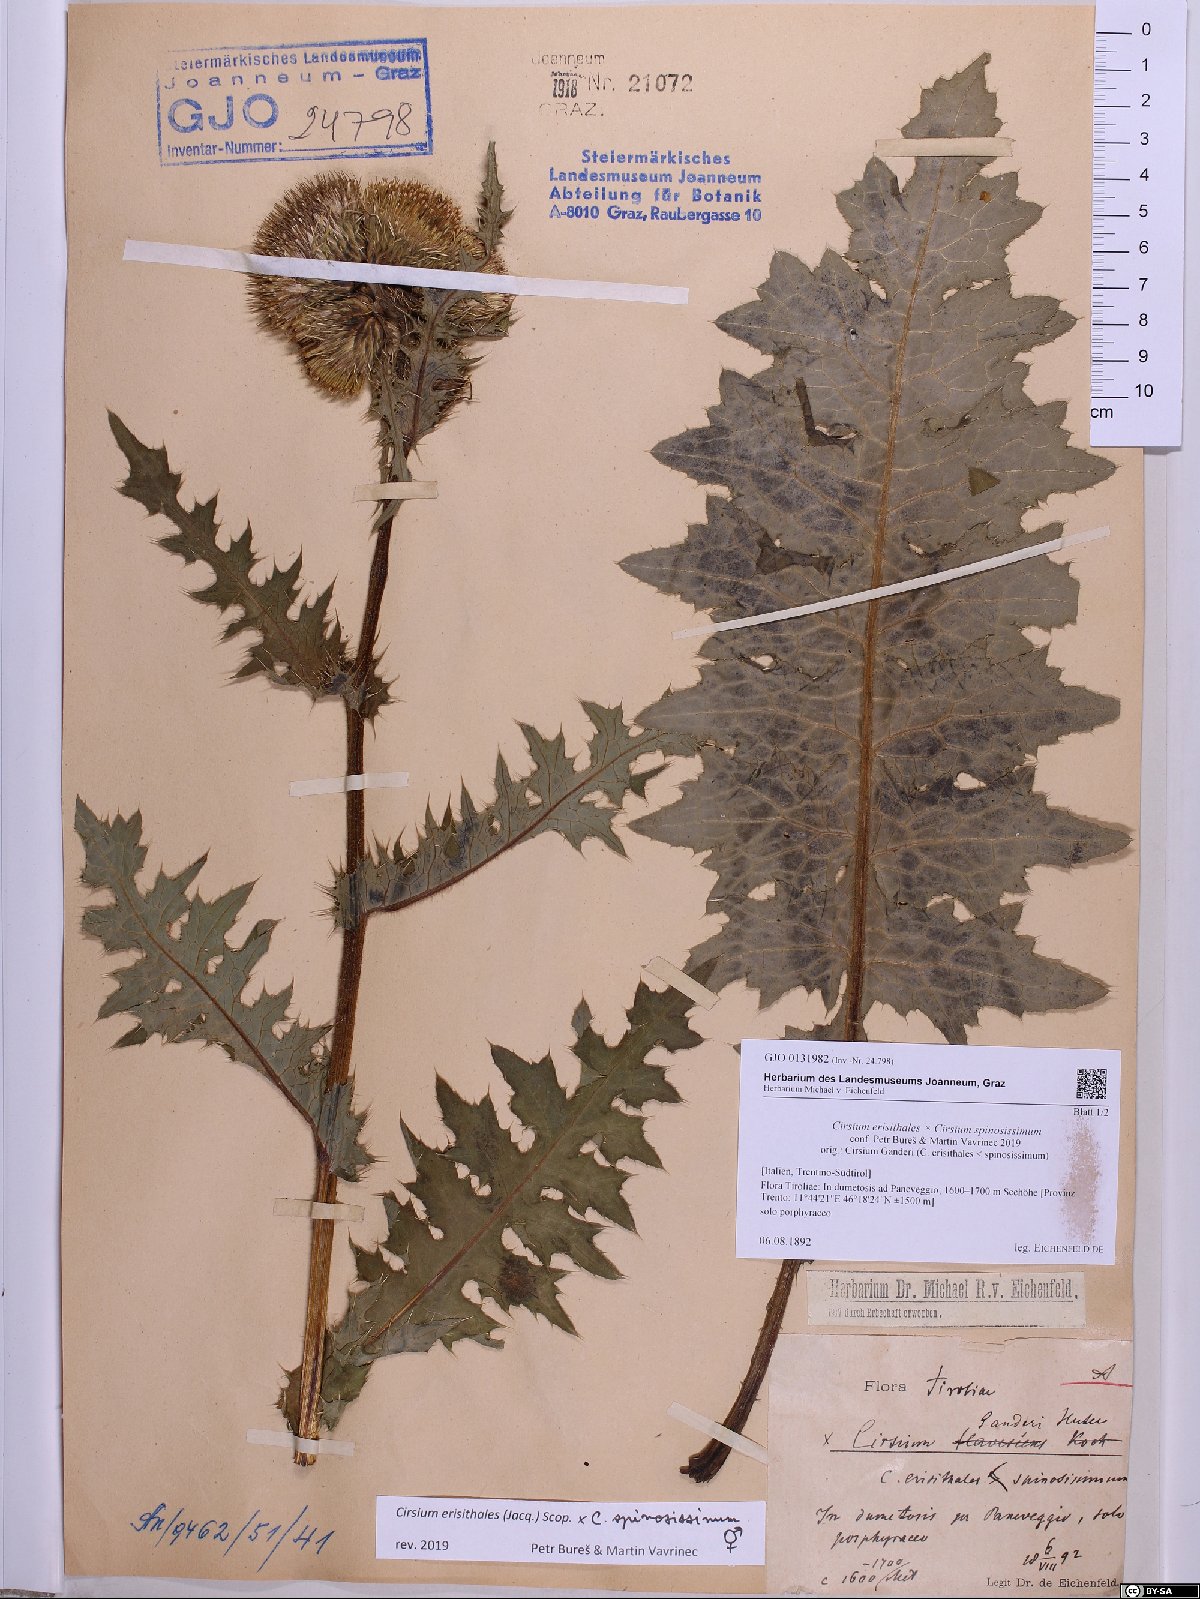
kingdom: Plantae
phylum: Tracheophyta
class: Magnoliopsida
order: Asterales
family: Asteraceae
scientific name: Asteraceae
